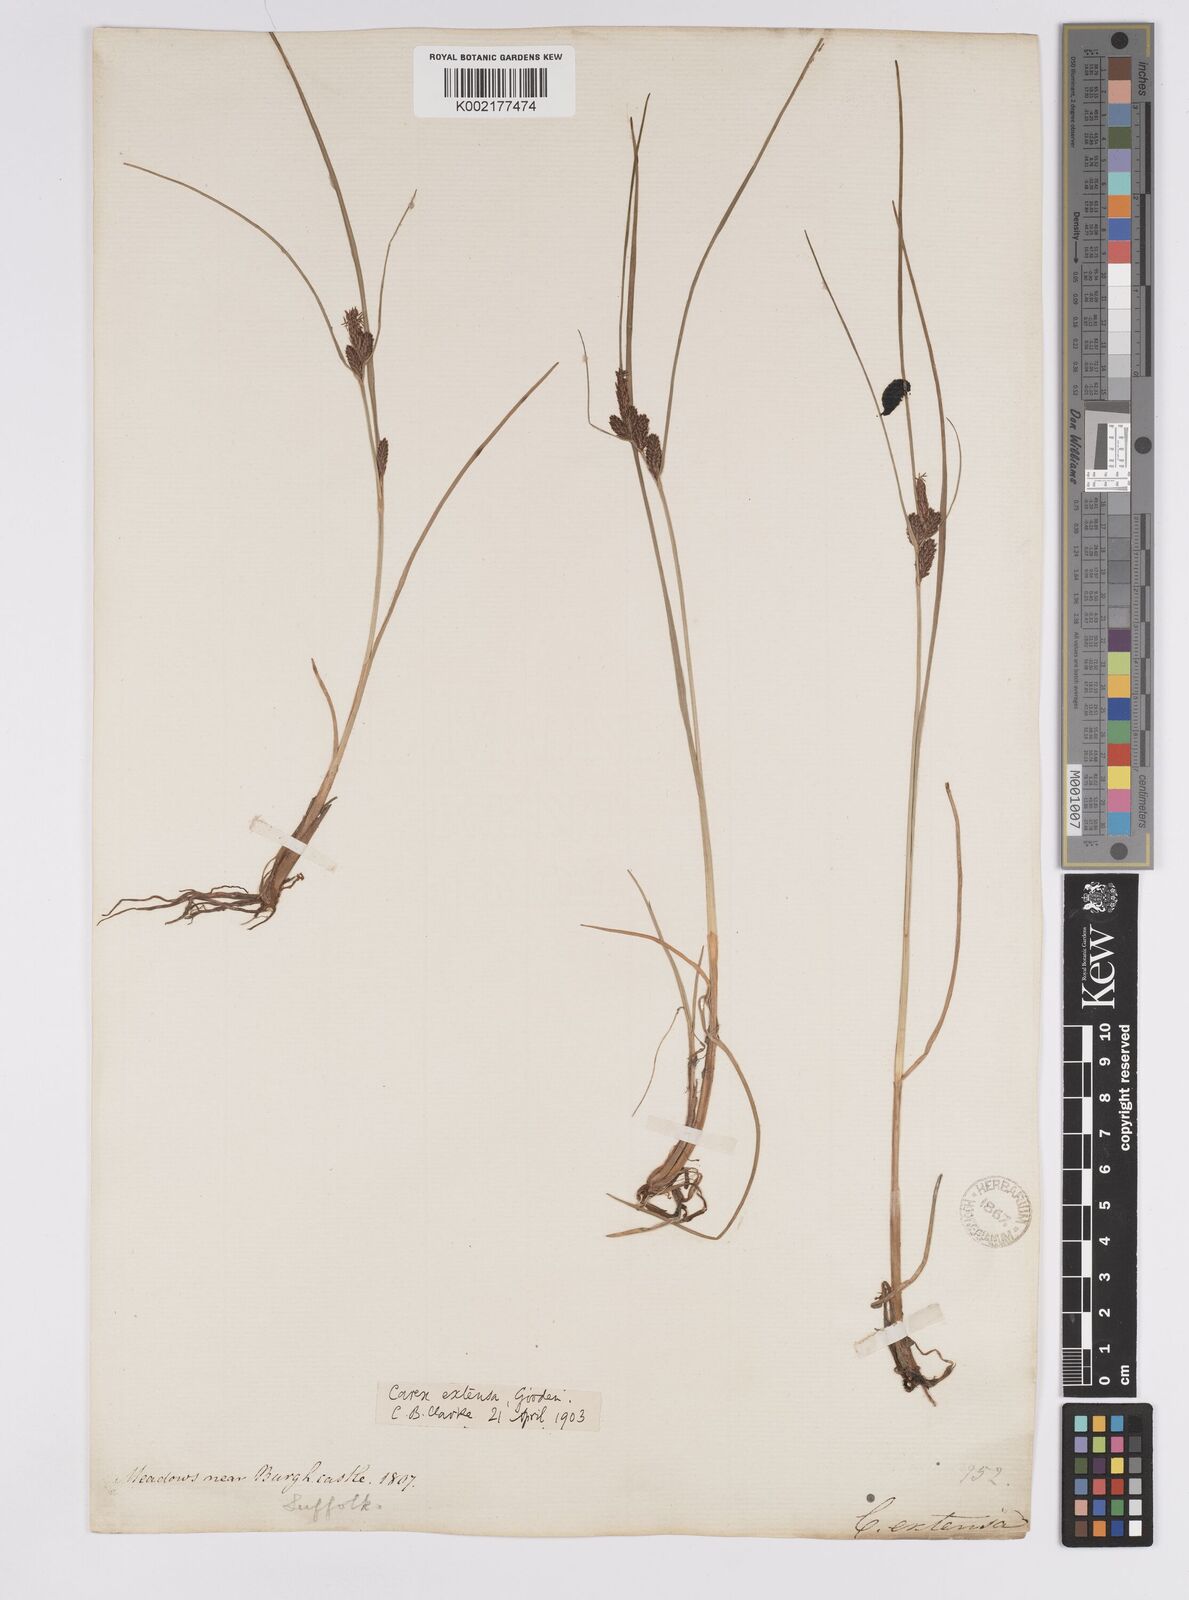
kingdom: Plantae
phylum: Tracheophyta
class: Liliopsida
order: Poales
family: Cyperaceae
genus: Carex
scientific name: Carex extensa
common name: Long-bracted sedge
